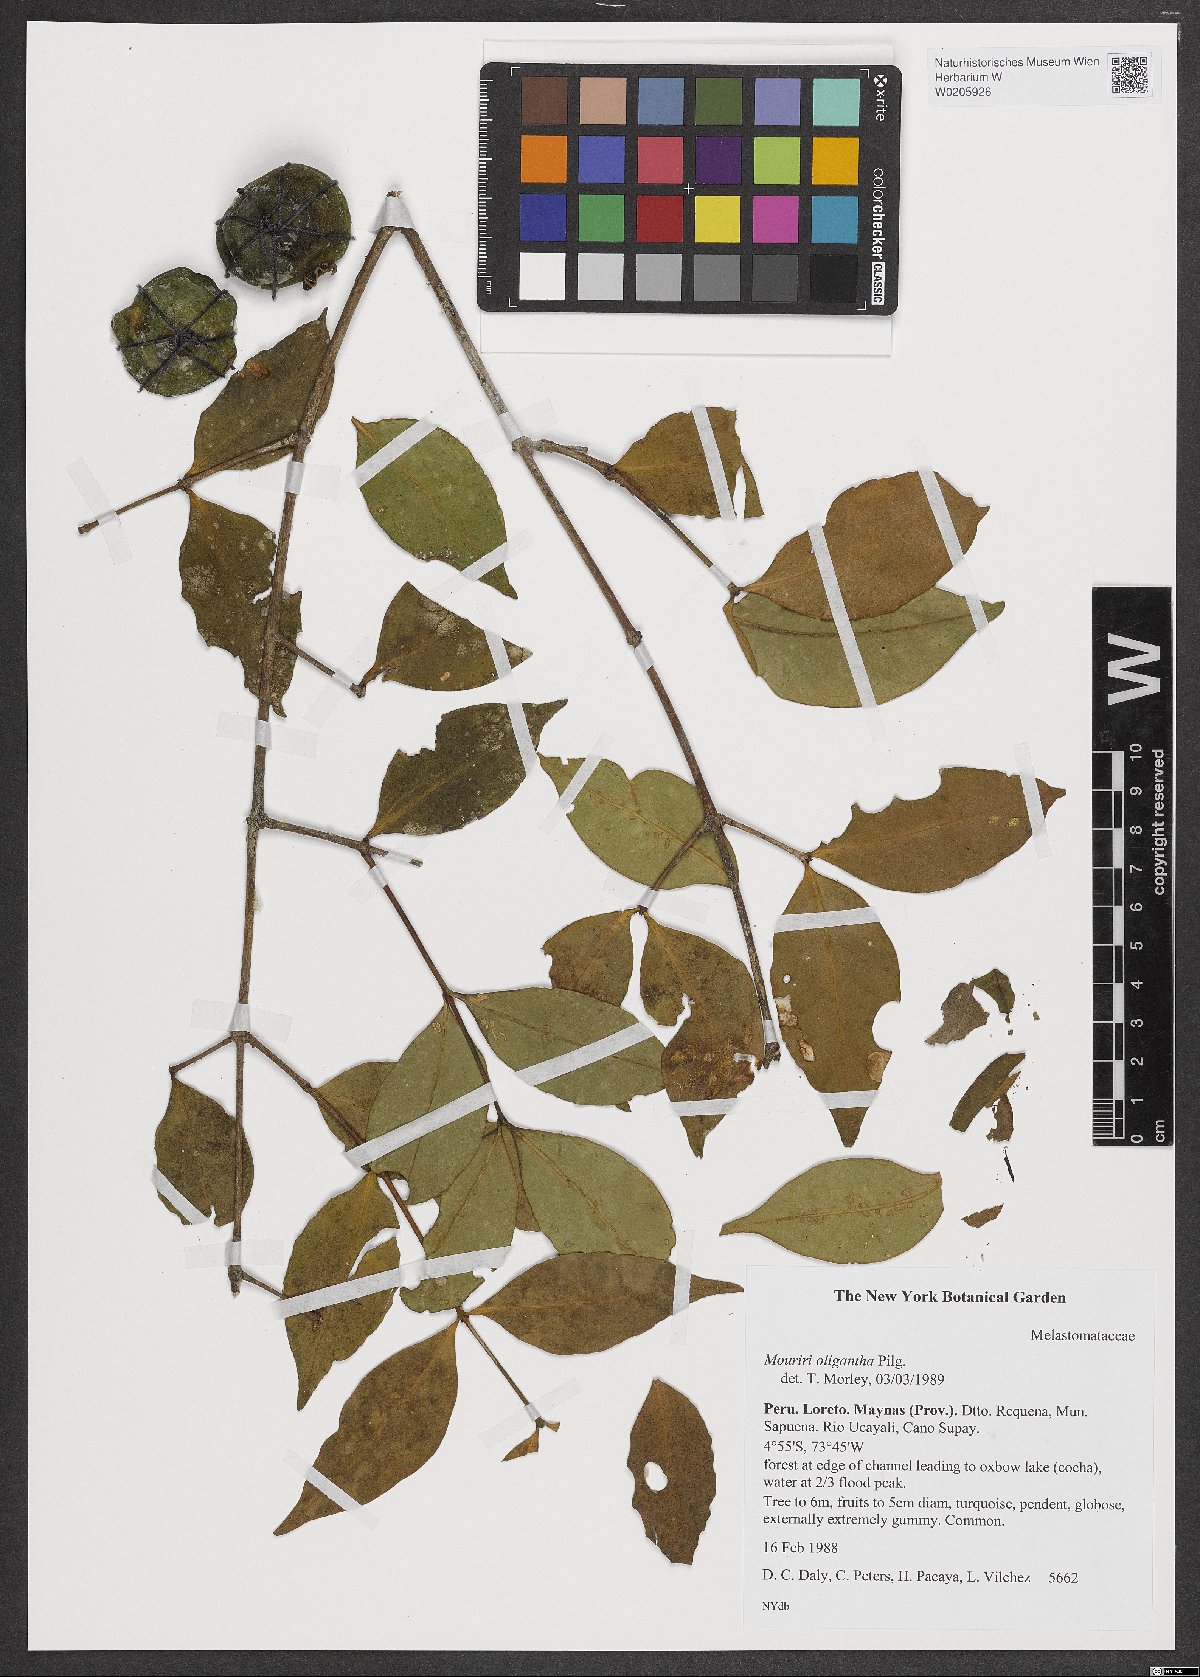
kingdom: Plantae
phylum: Tracheophyta
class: Magnoliopsida
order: Myrtales
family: Melastomataceae
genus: Mouriri
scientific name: Mouriri oligantha
